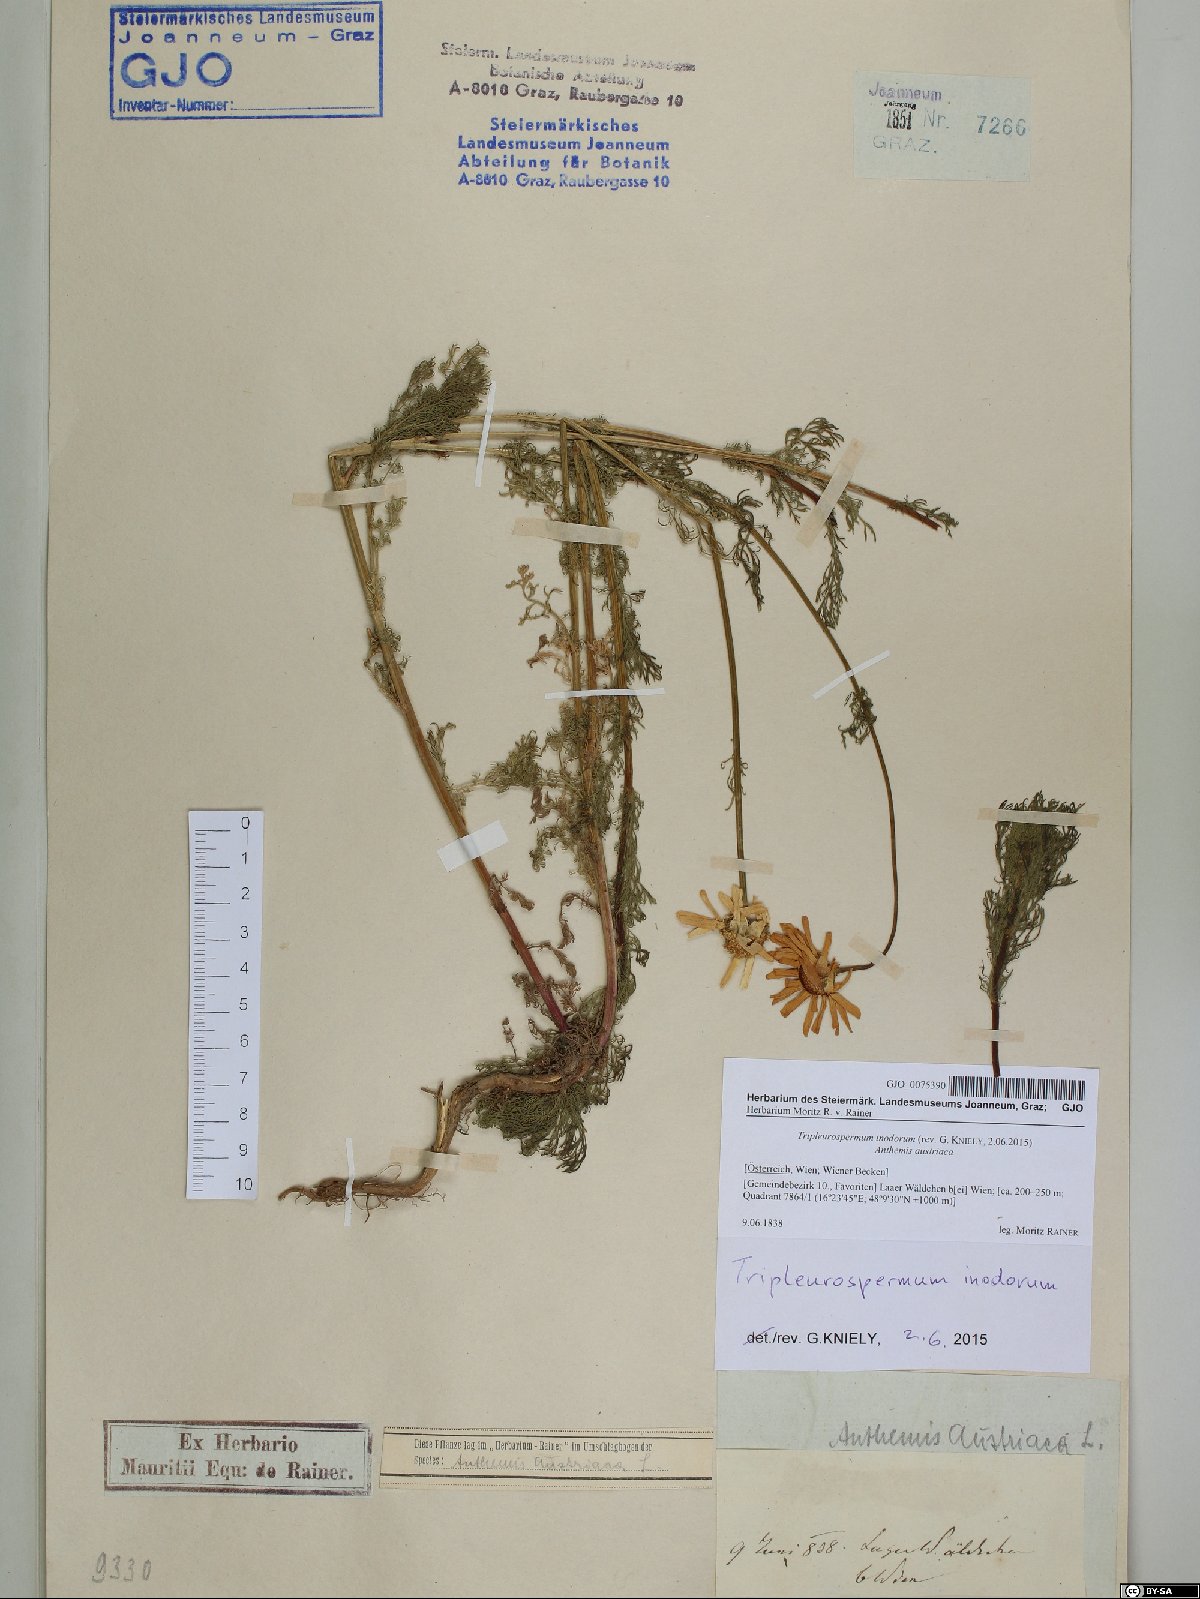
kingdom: Plantae
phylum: Tracheophyta
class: Magnoliopsida
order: Asterales
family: Asteraceae
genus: Tripleurospermum
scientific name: Tripleurospermum inodorum
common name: Scentless mayweed
